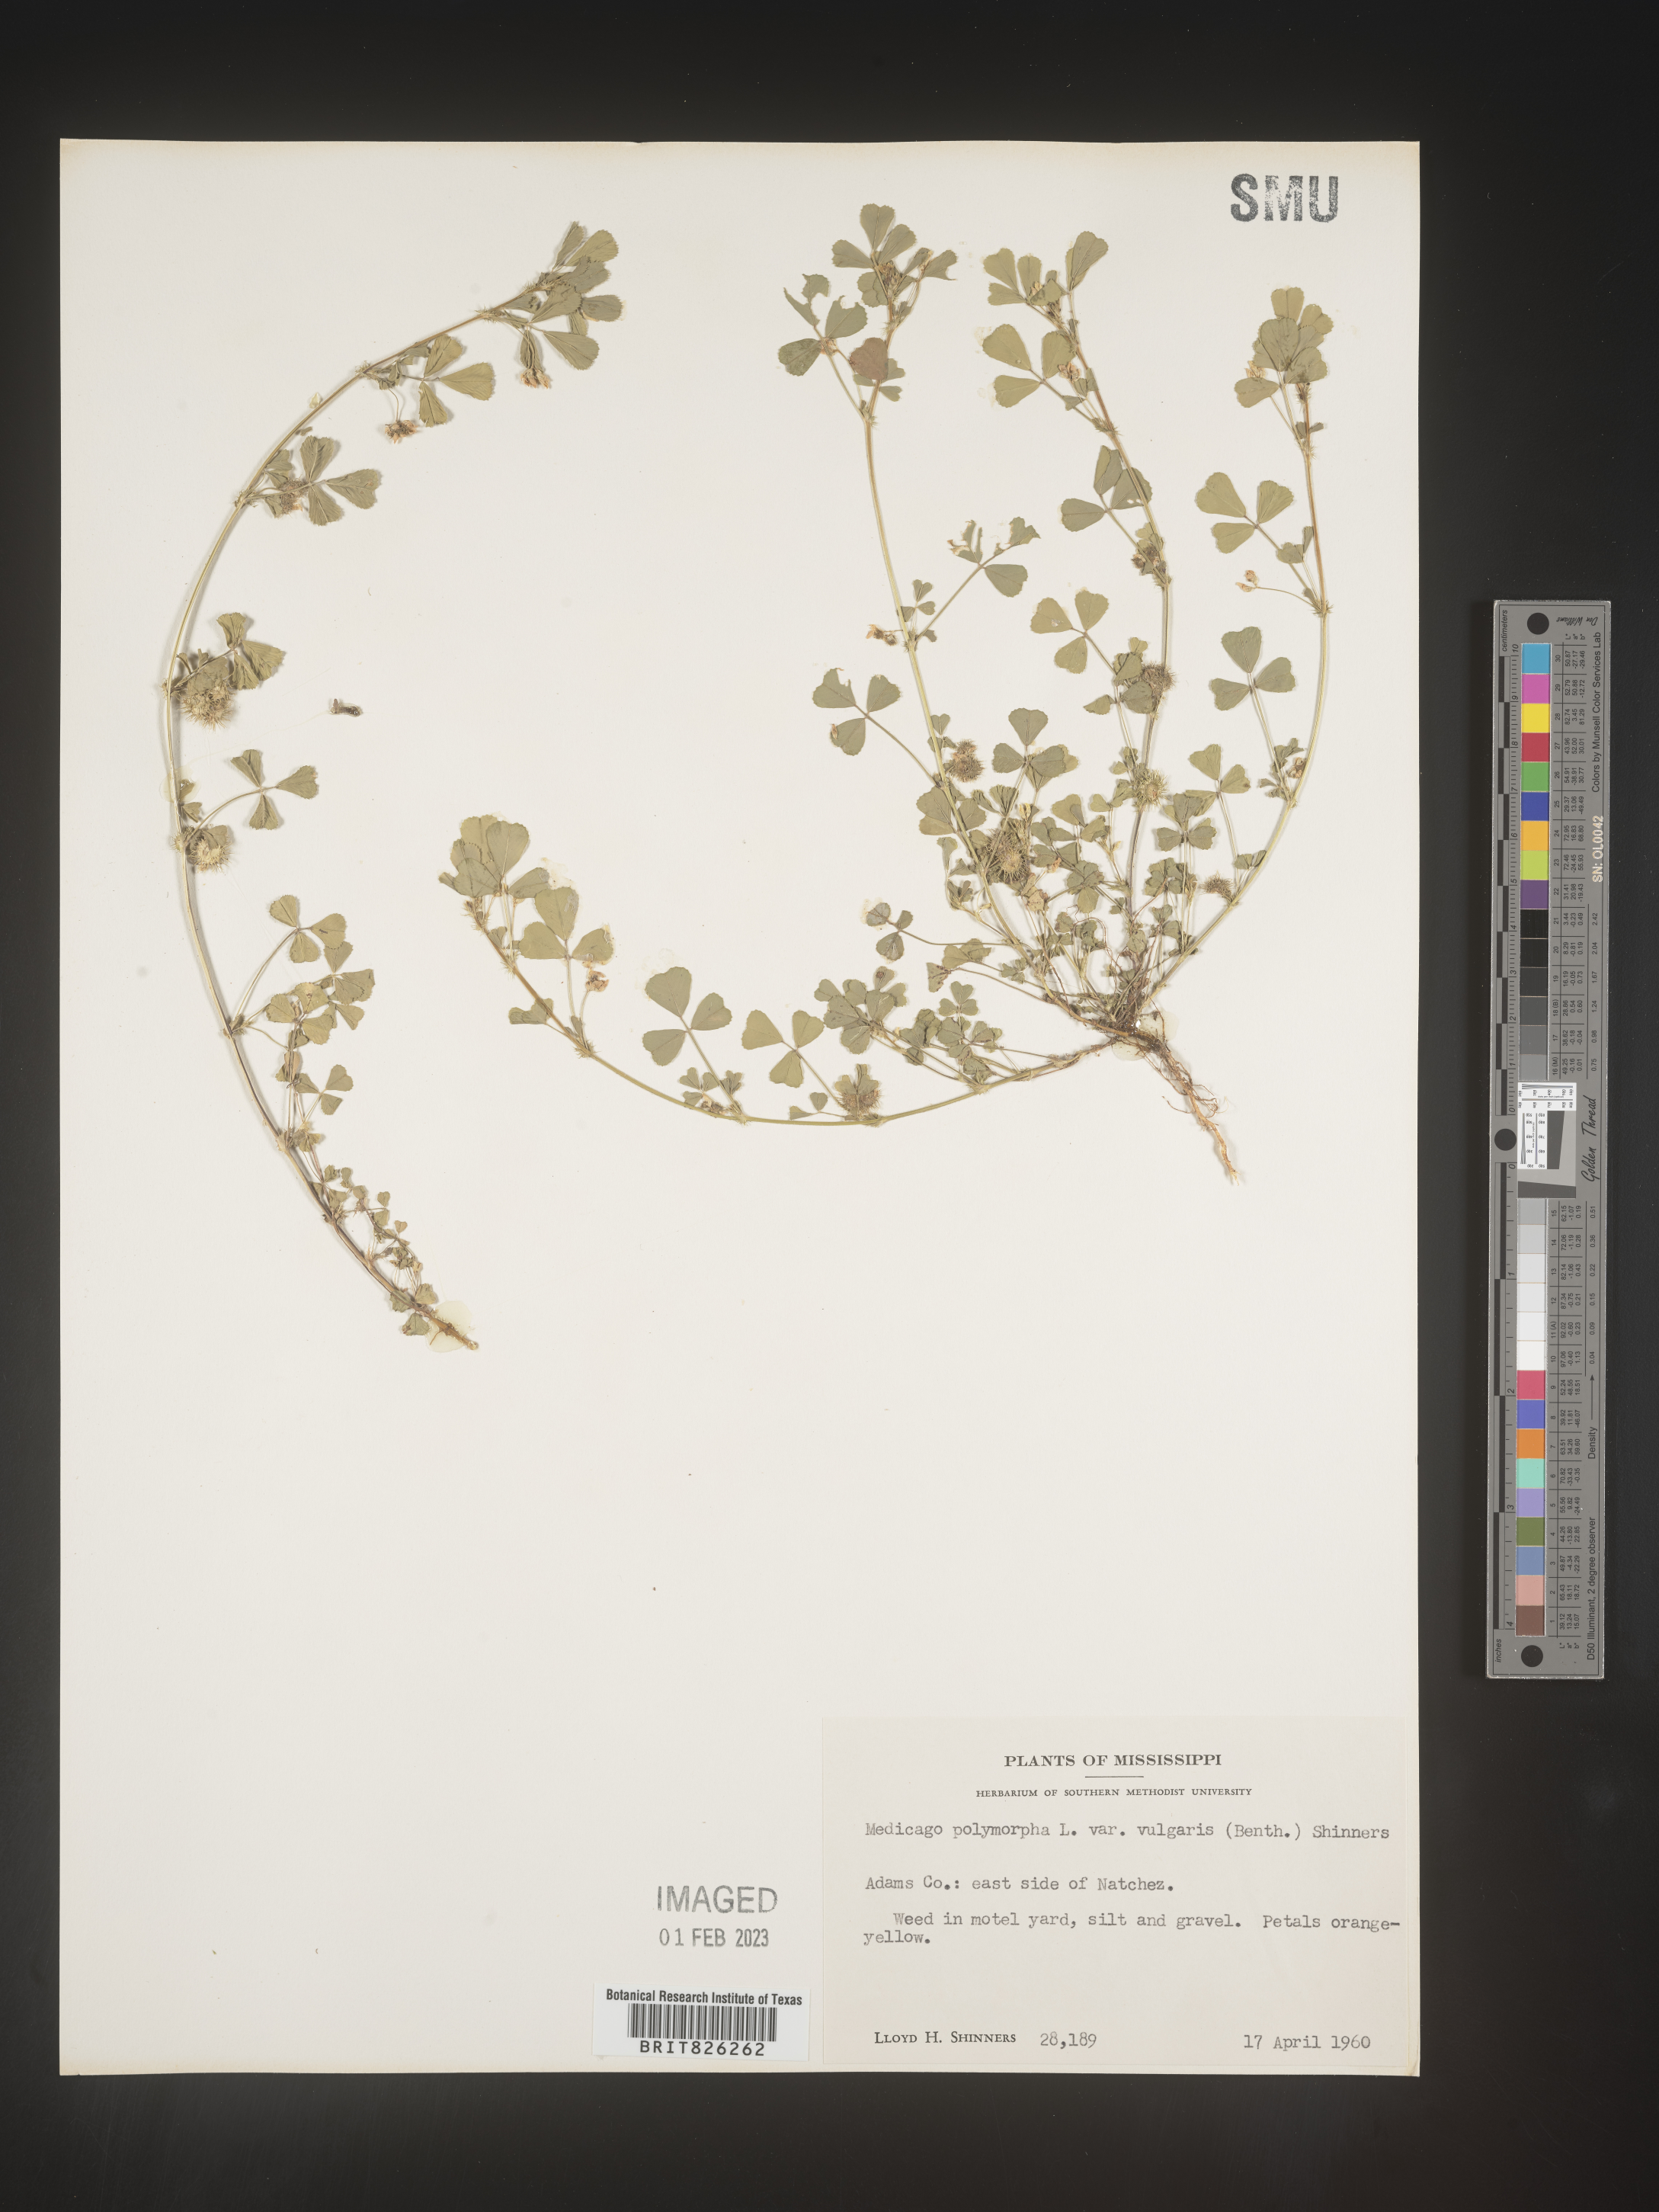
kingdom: Plantae
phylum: Tracheophyta
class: Magnoliopsida
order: Fabales
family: Fabaceae
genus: Medicago
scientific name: Medicago polymorpha
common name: Burclover
